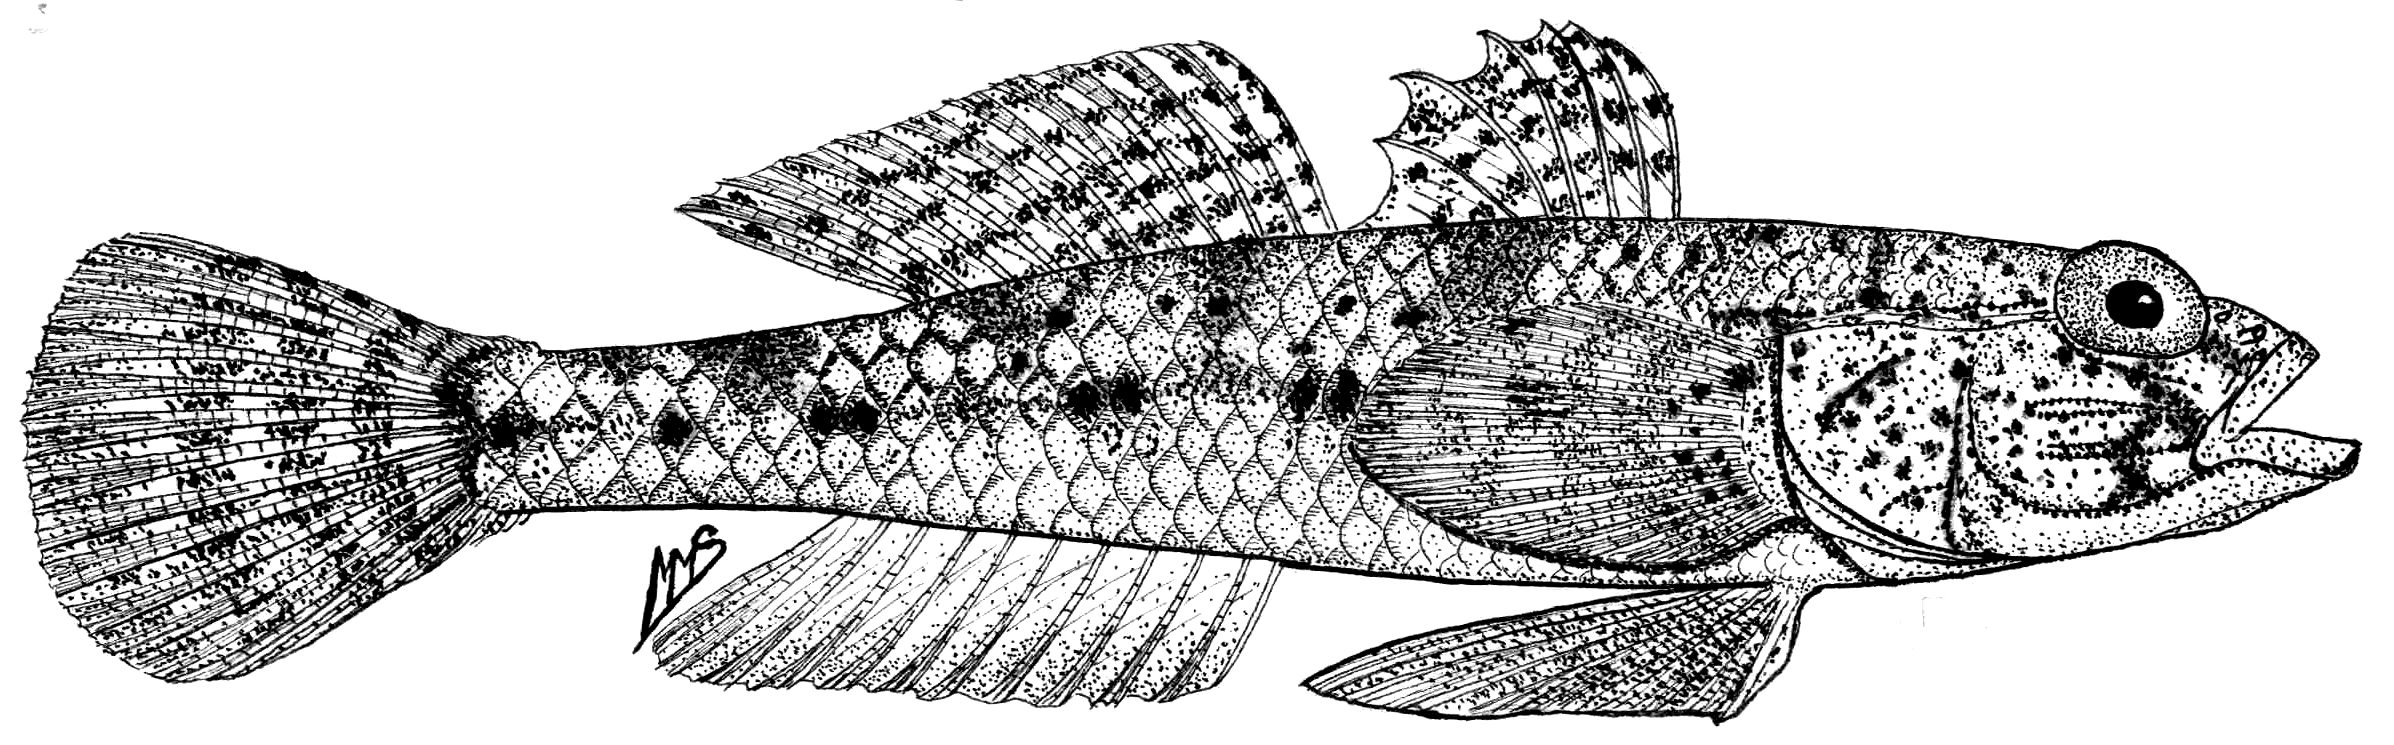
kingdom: Animalia
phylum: Chordata
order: Perciformes
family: Gobiidae
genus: Psammogobius
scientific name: Psammogobius knysnaensis
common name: Knysna sandgoby
